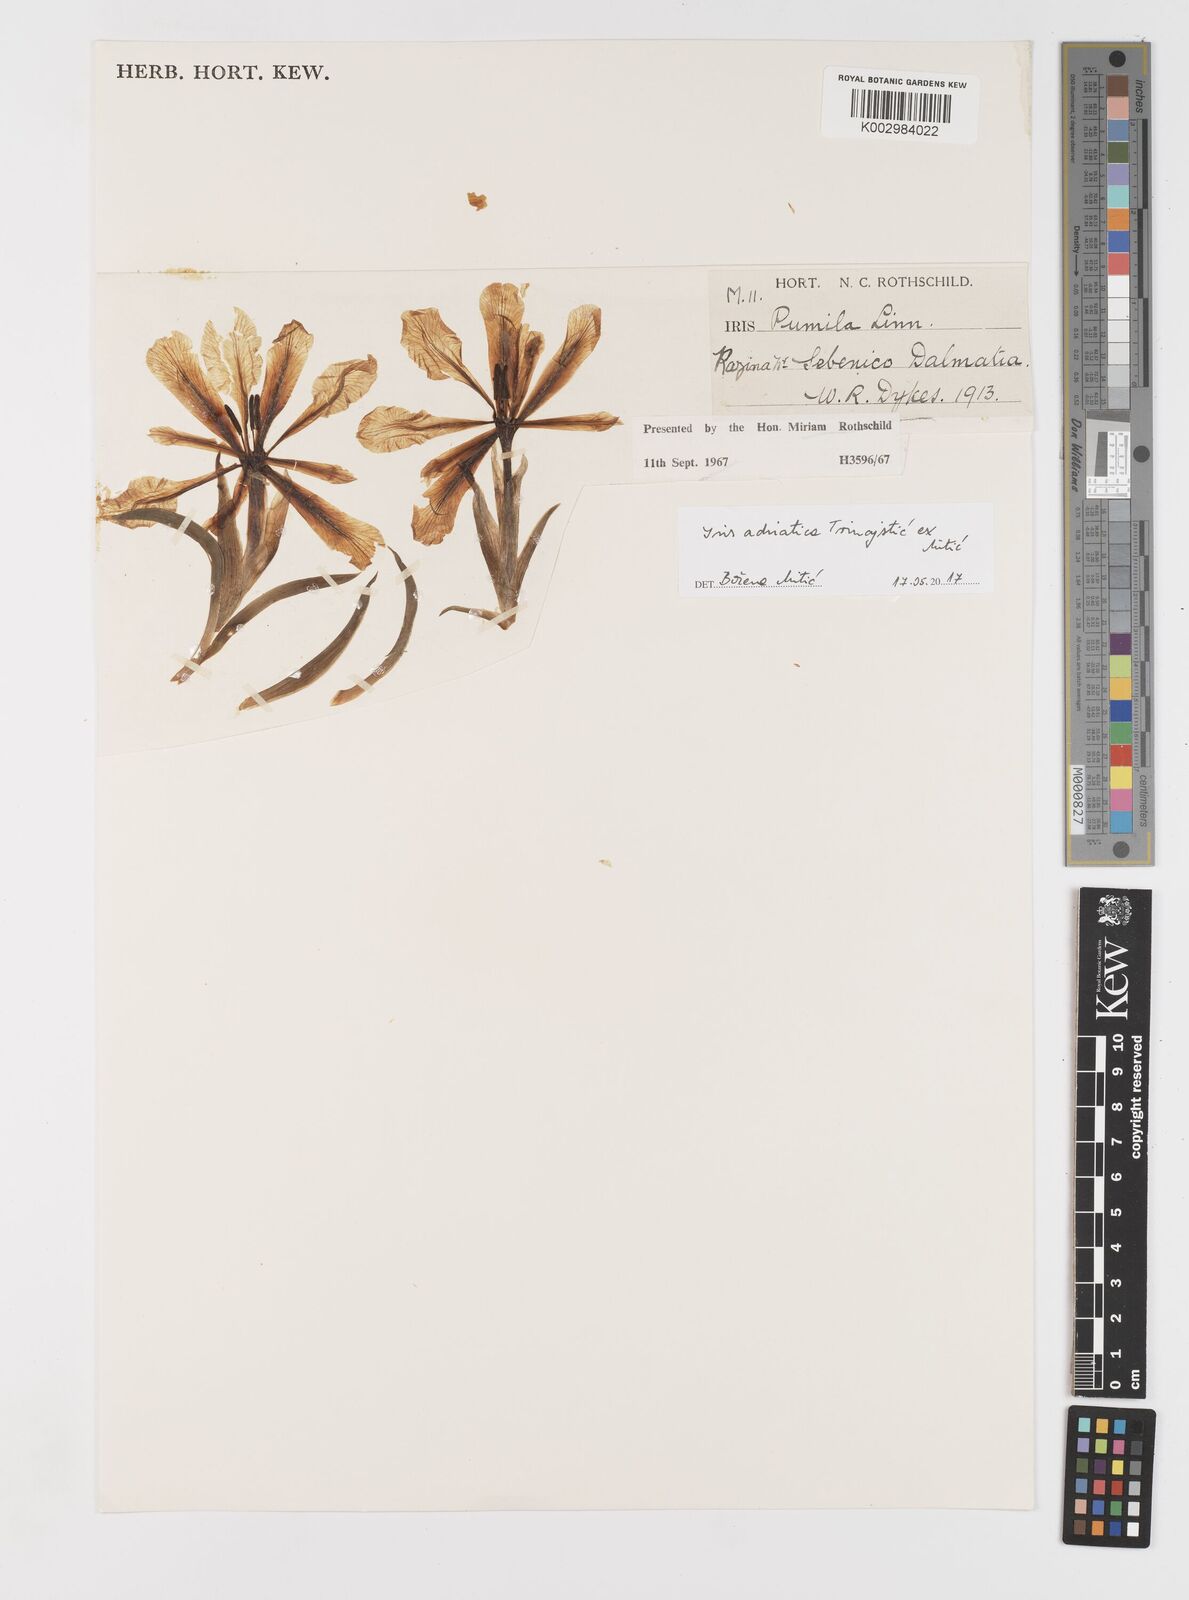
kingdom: Plantae
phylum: Tracheophyta
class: Liliopsida
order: Asparagales
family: Iridaceae
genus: Iris
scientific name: Iris adriatica
